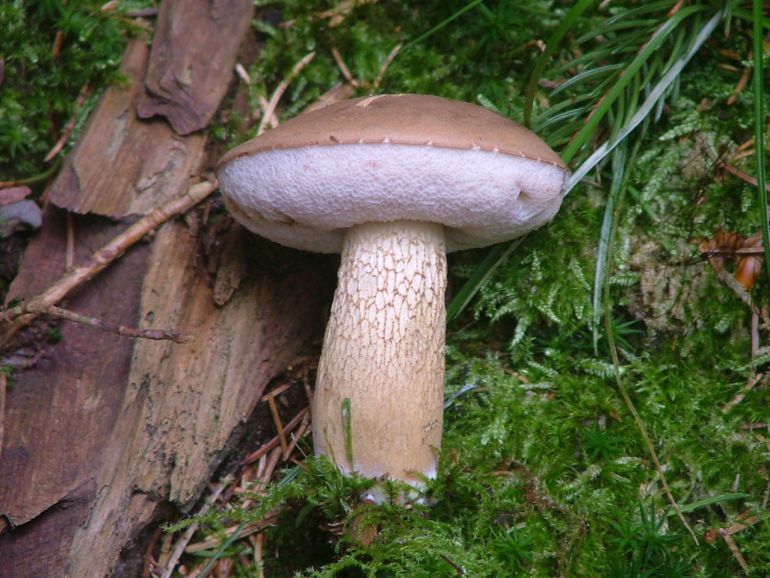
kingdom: Fungi
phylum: Basidiomycota
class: Agaricomycetes
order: Boletales
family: Boletaceae
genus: Tylopilus
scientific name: Tylopilus felleus
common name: galderørhat
